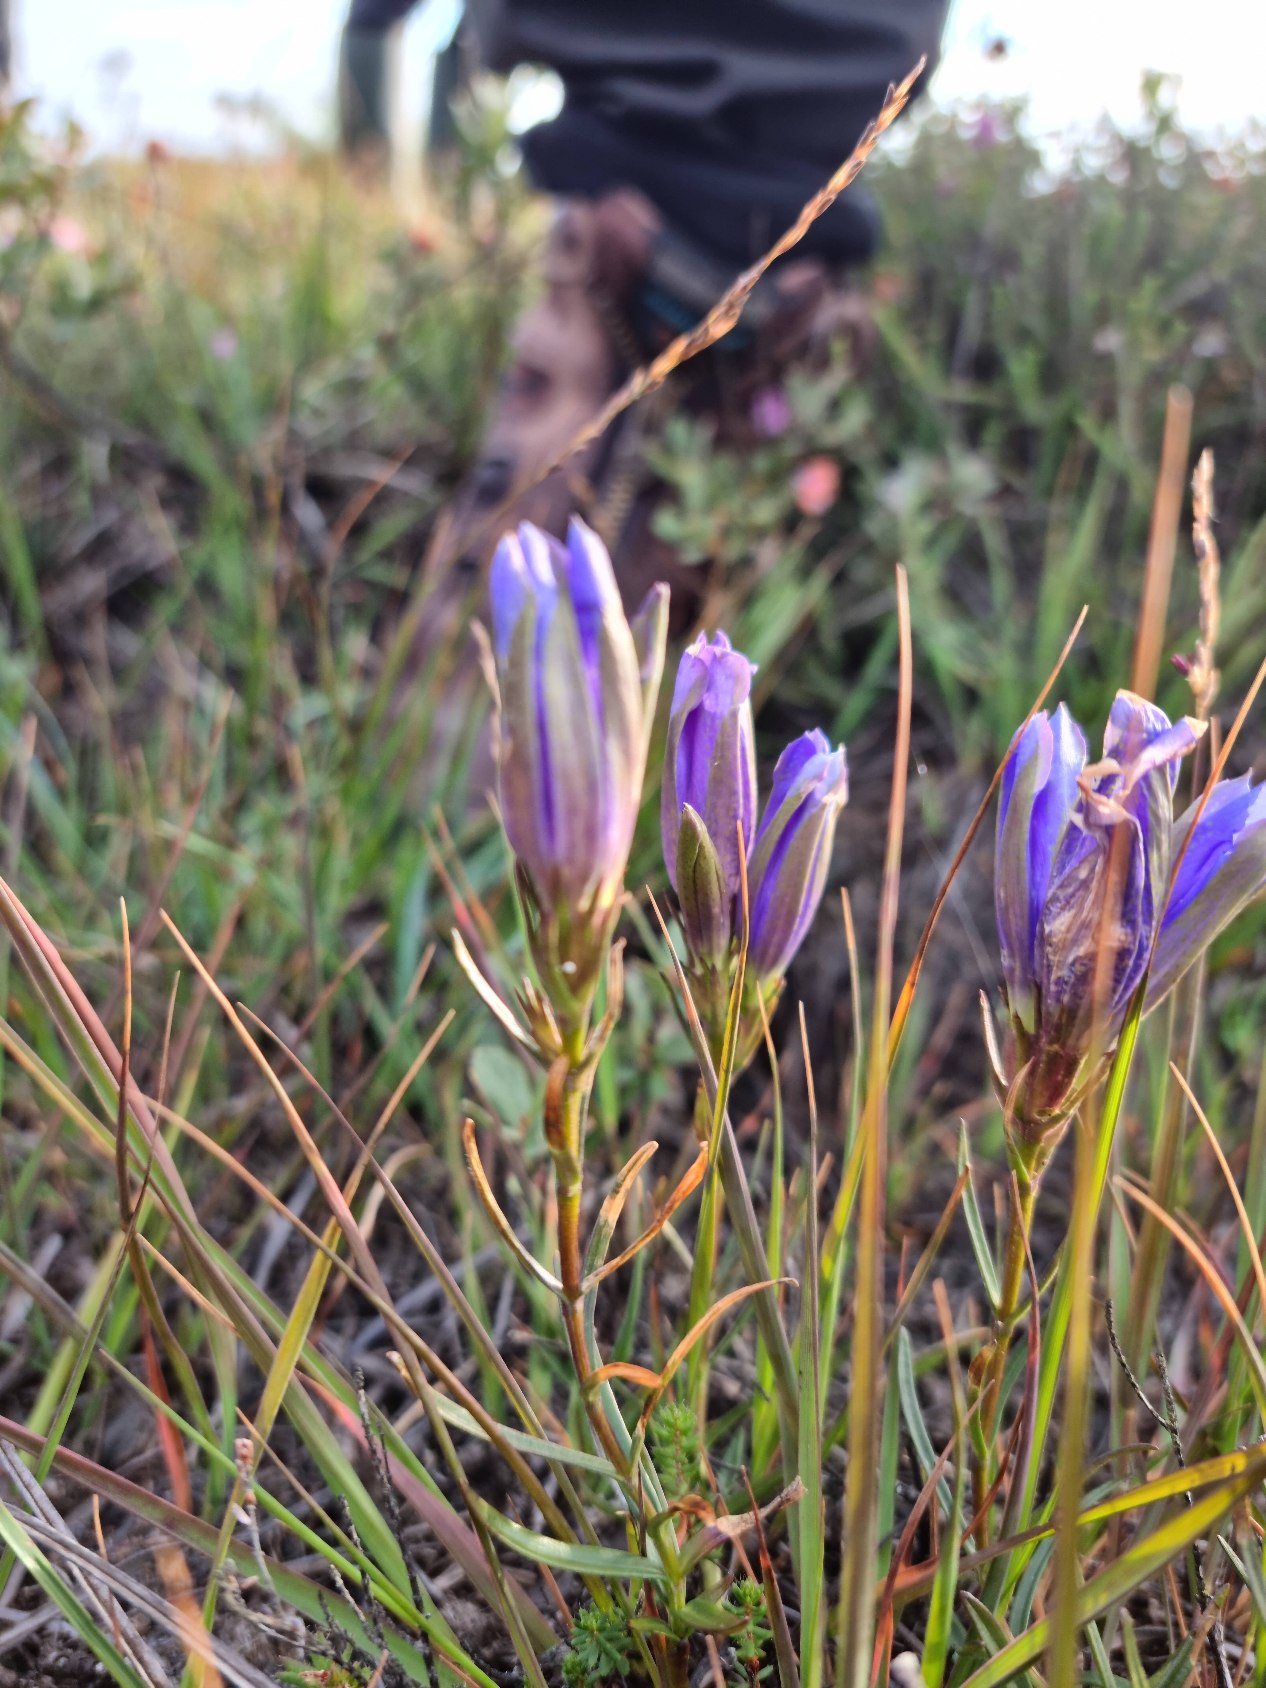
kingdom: Plantae
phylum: Tracheophyta
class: Magnoliopsida
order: Gentianales
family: Gentianaceae
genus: Gentiana
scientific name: Gentiana pneumonanthe
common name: Klokke-ensian
